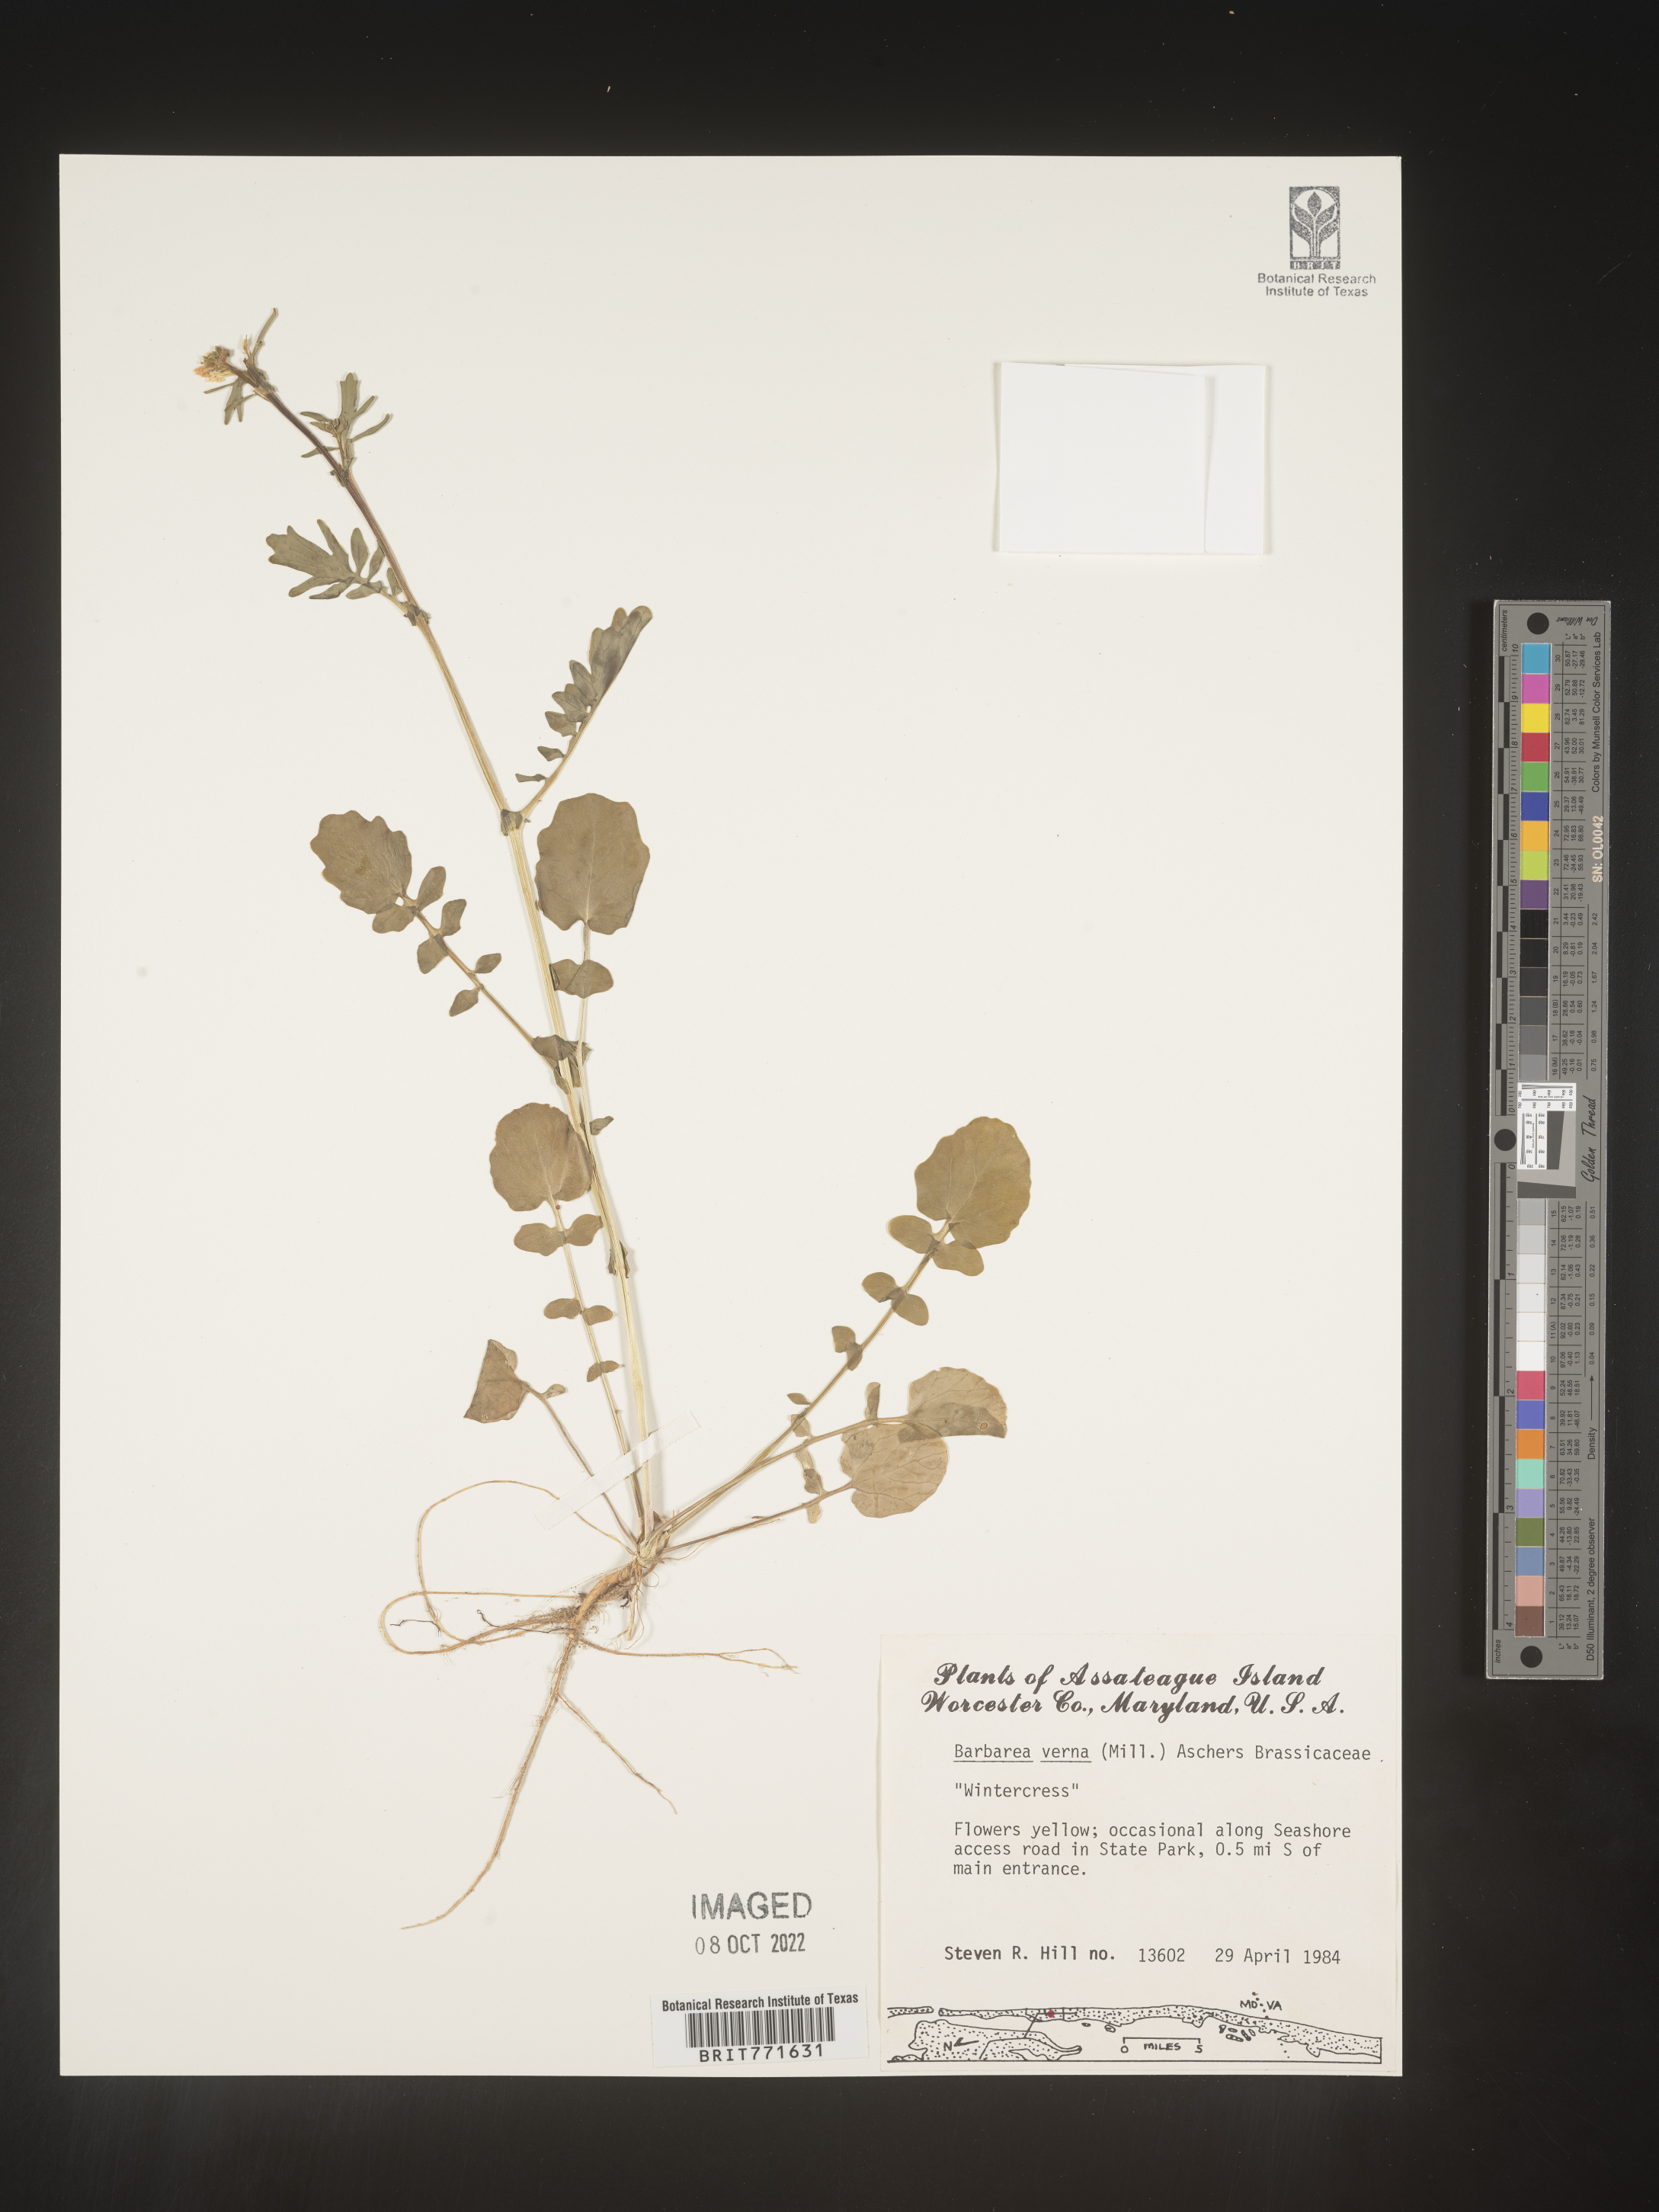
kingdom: Plantae
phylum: Tracheophyta
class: Magnoliopsida
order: Brassicales
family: Brassicaceae
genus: Barbarea
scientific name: Barbarea verna
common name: American cress
